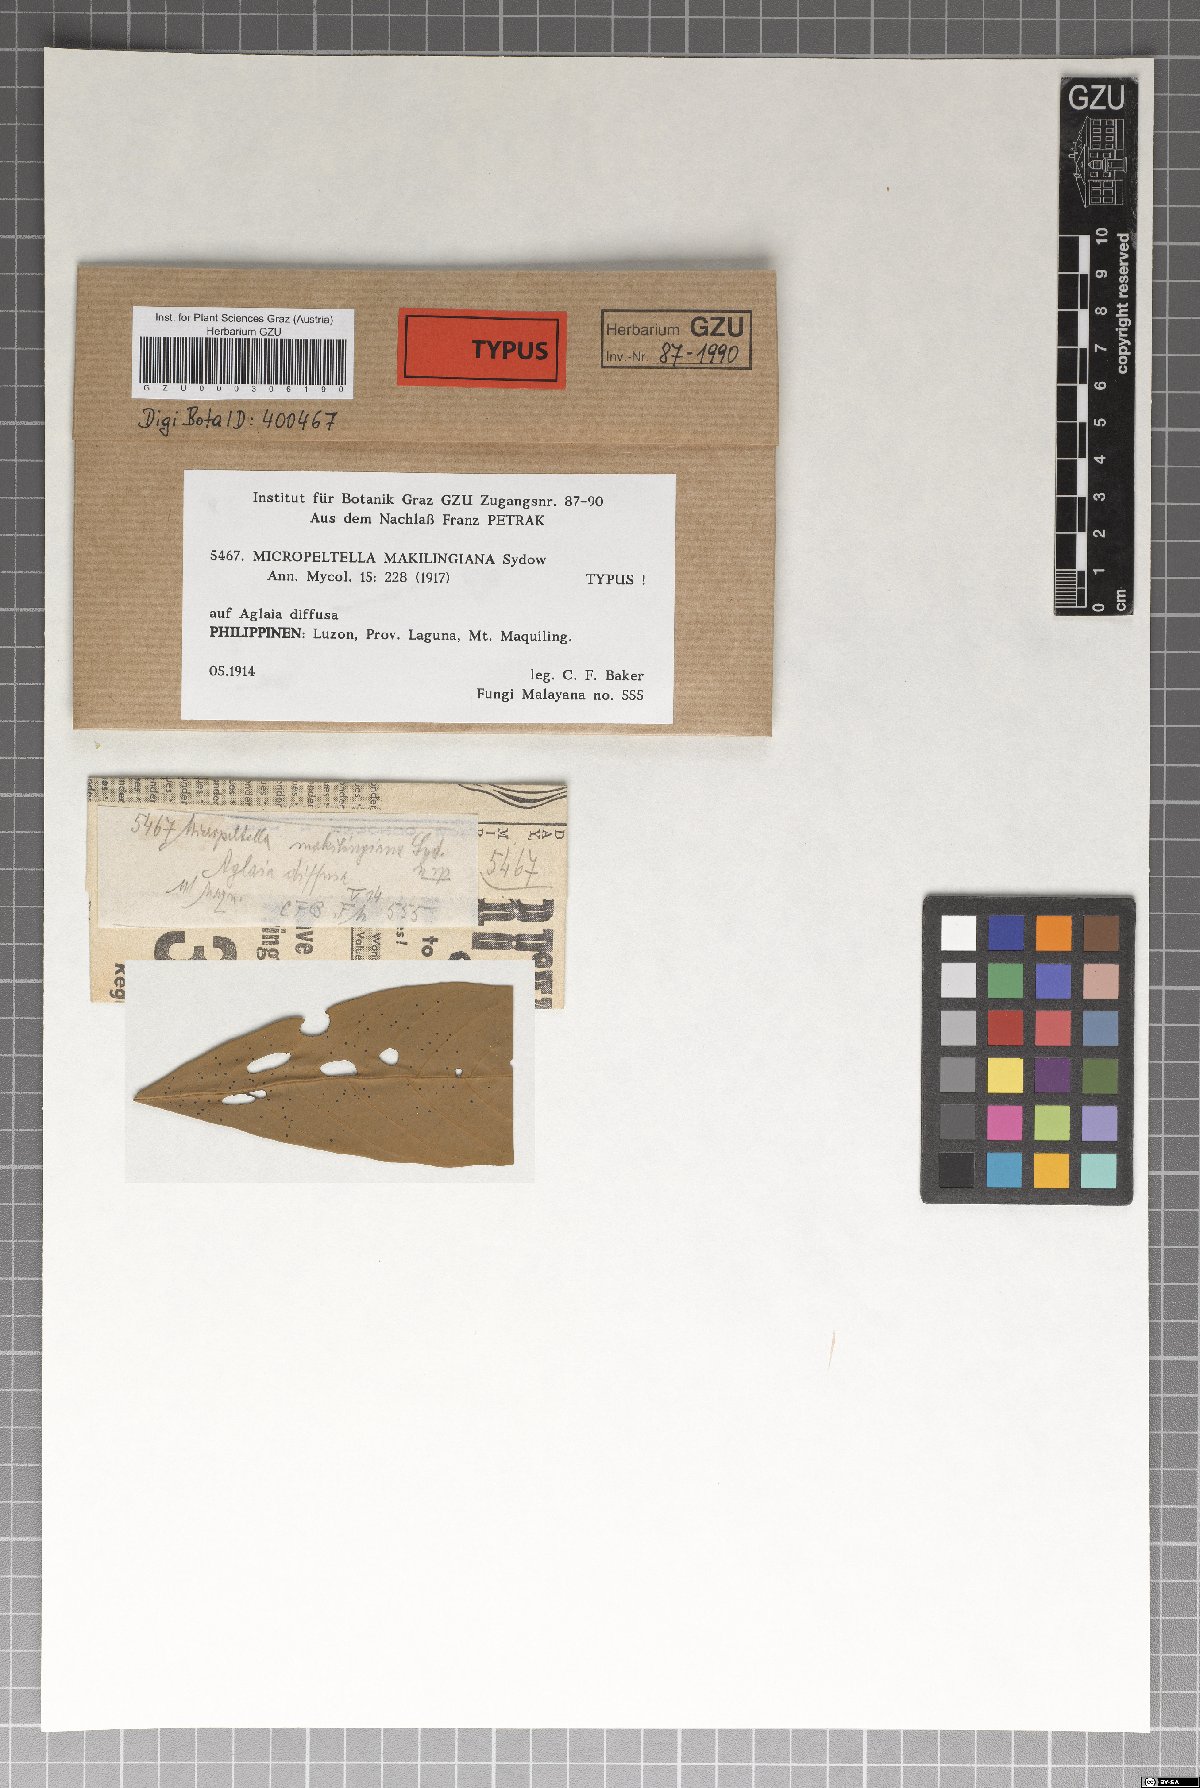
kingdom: Fungi
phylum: Ascomycota
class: Dothideomycetes
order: Microthyriales
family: Micropeltidaceae
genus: Micropeltella
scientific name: Micropeltella makilingiana
